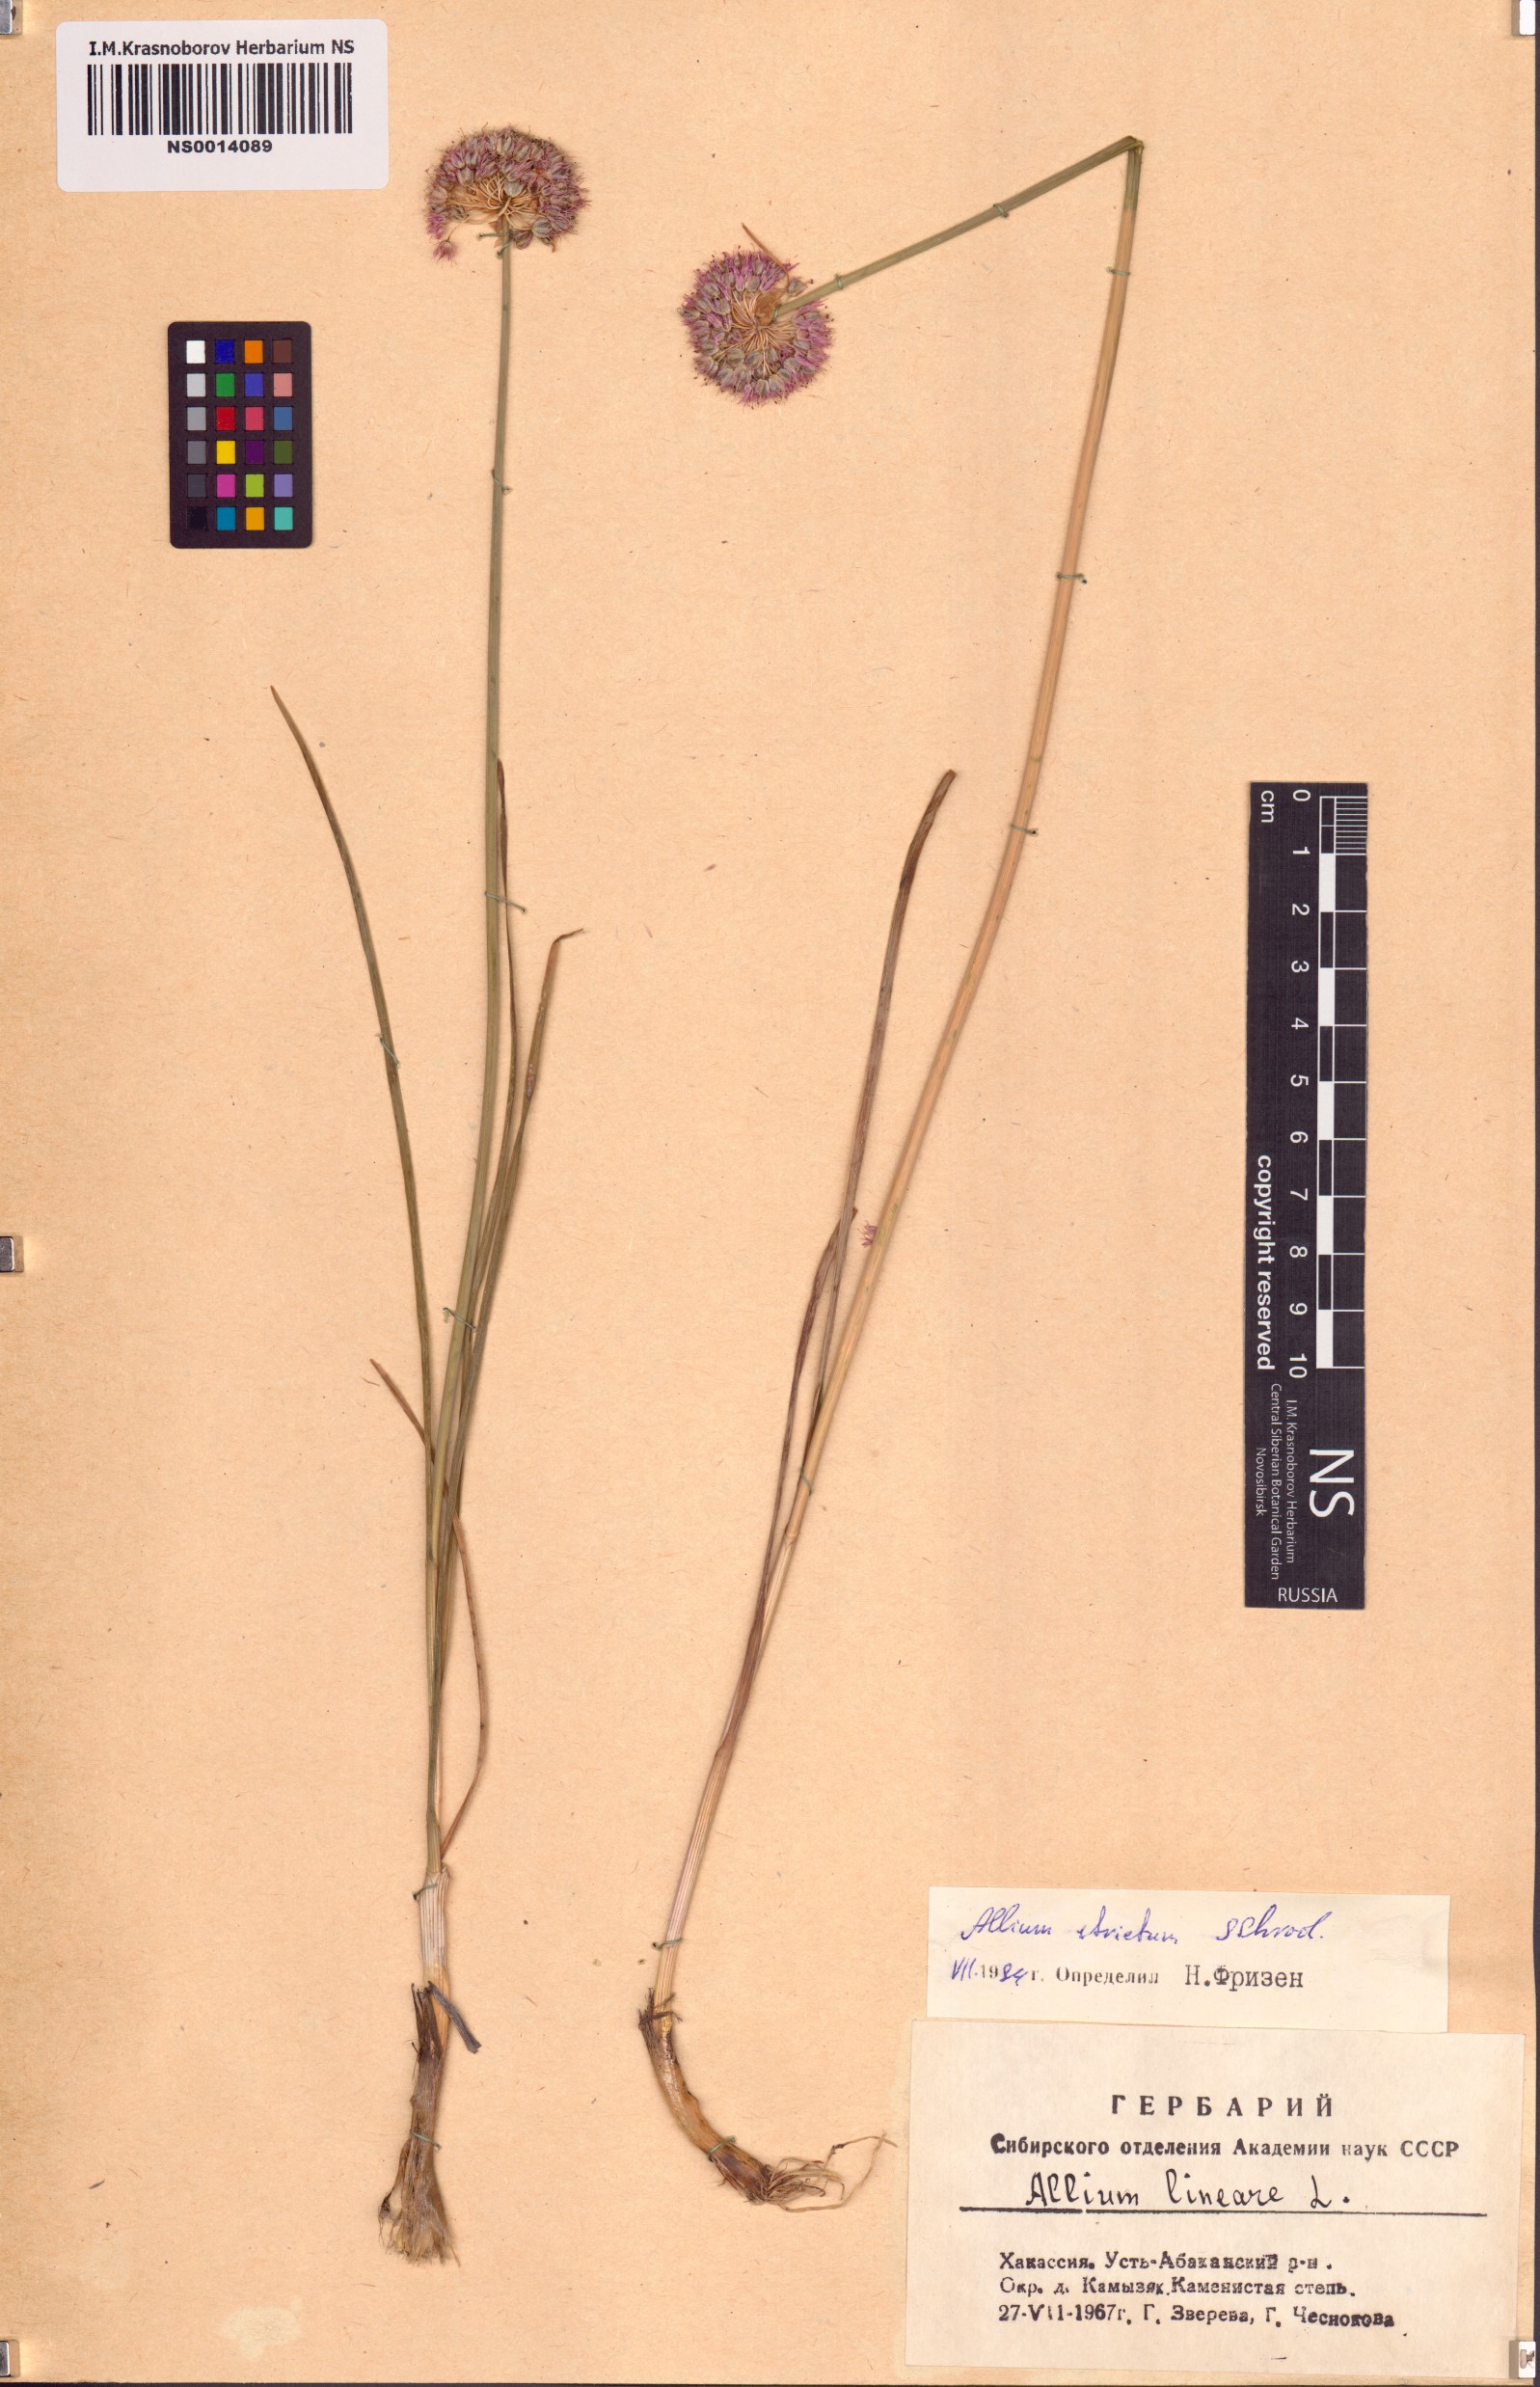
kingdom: Plantae
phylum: Tracheophyta
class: Liliopsida
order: Asparagales
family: Amaryllidaceae
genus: Allium
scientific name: Allium strictum
